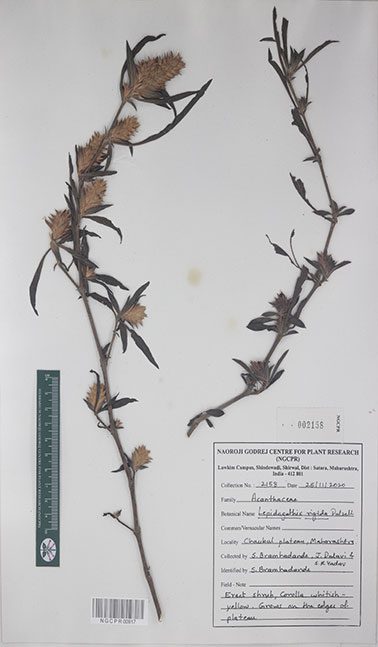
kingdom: Plantae
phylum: Tracheophyta
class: Magnoliopsida
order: Lamiales
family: Acanthaceae
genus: Lepidagathis
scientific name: Lepidagathis rigida
